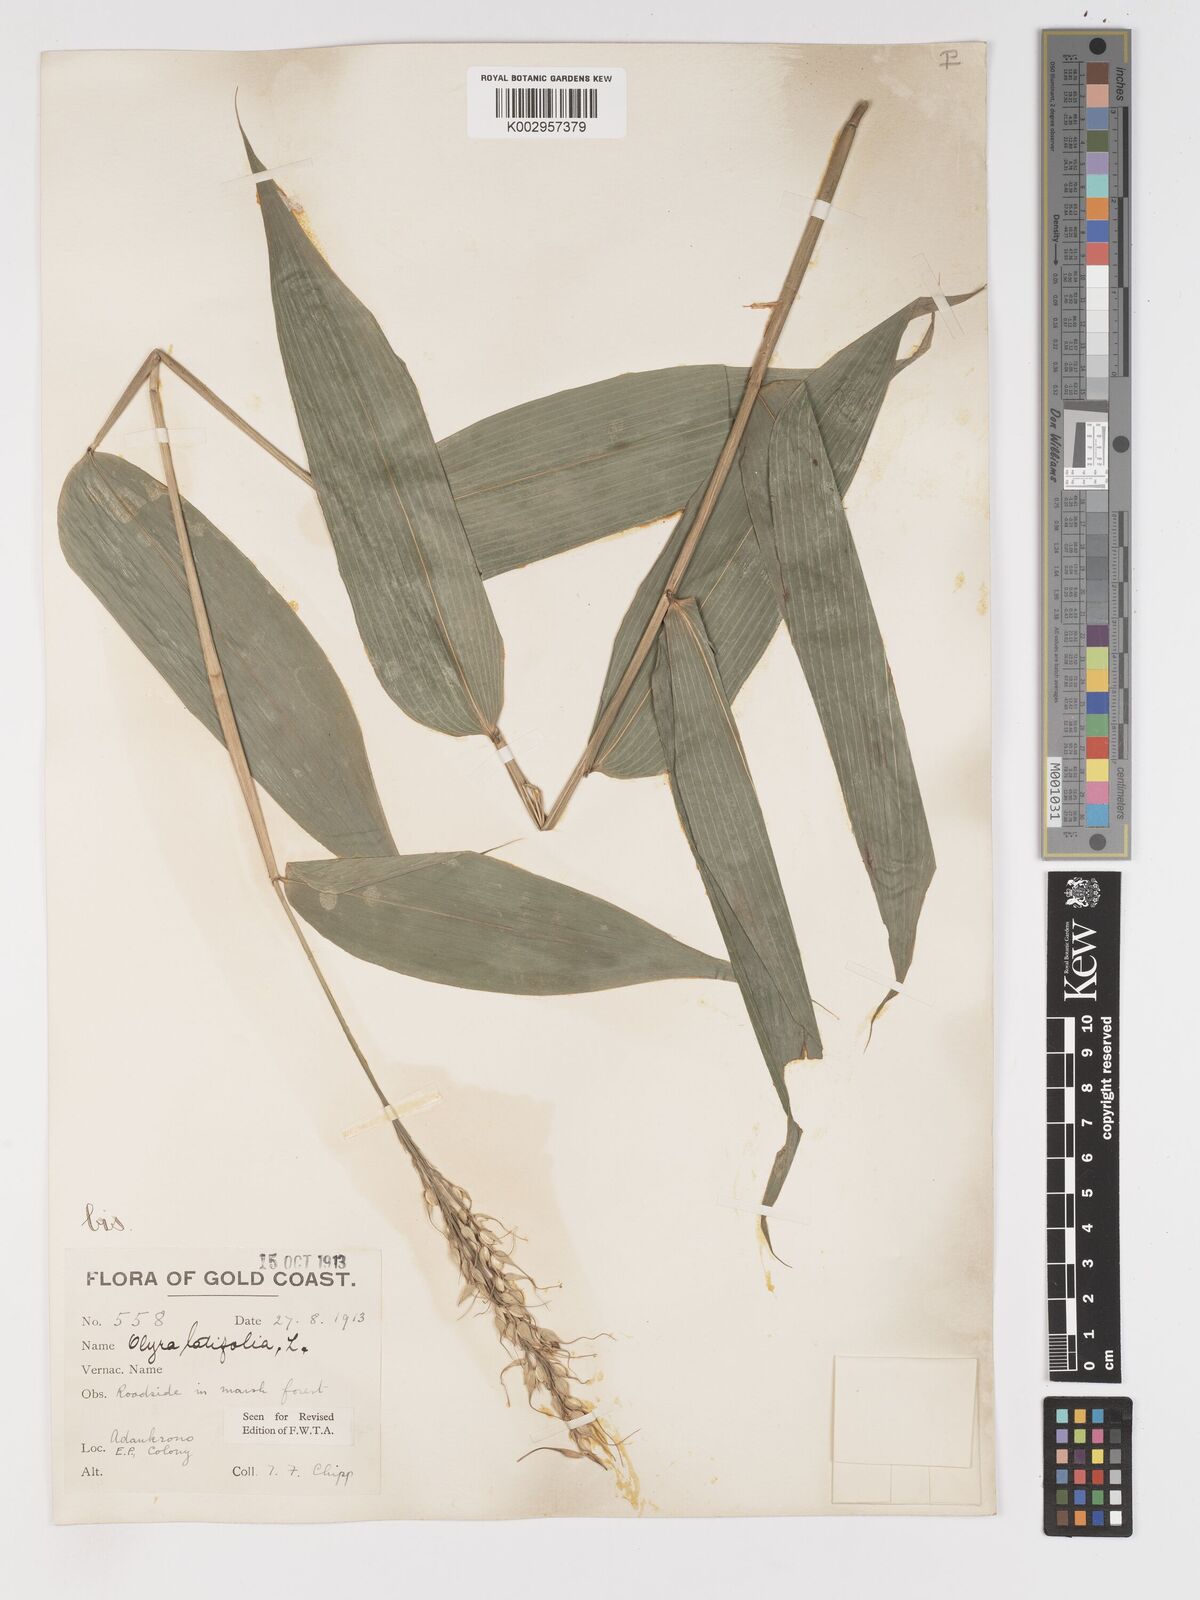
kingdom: Plantae
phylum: Tracheophyta
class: Liliopsida
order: Poales
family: Poaceae
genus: Olyra
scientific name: Olyra latifolia
